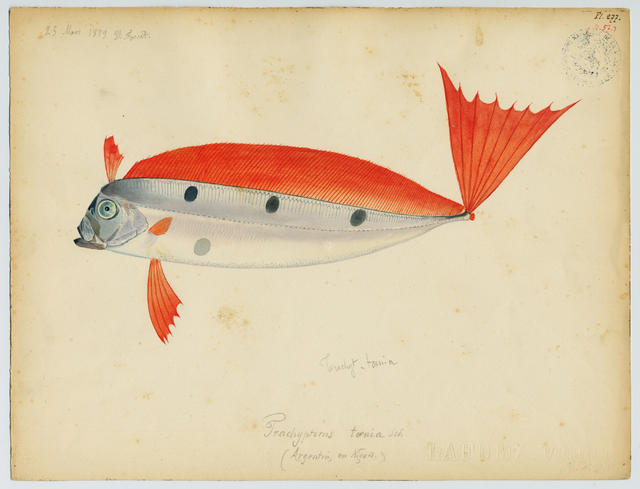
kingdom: Animalia
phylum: Chordata
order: Lampriformes
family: Trachipteridae
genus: Trachipterus
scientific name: Trachipterus trachypterus
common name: Dealfish
